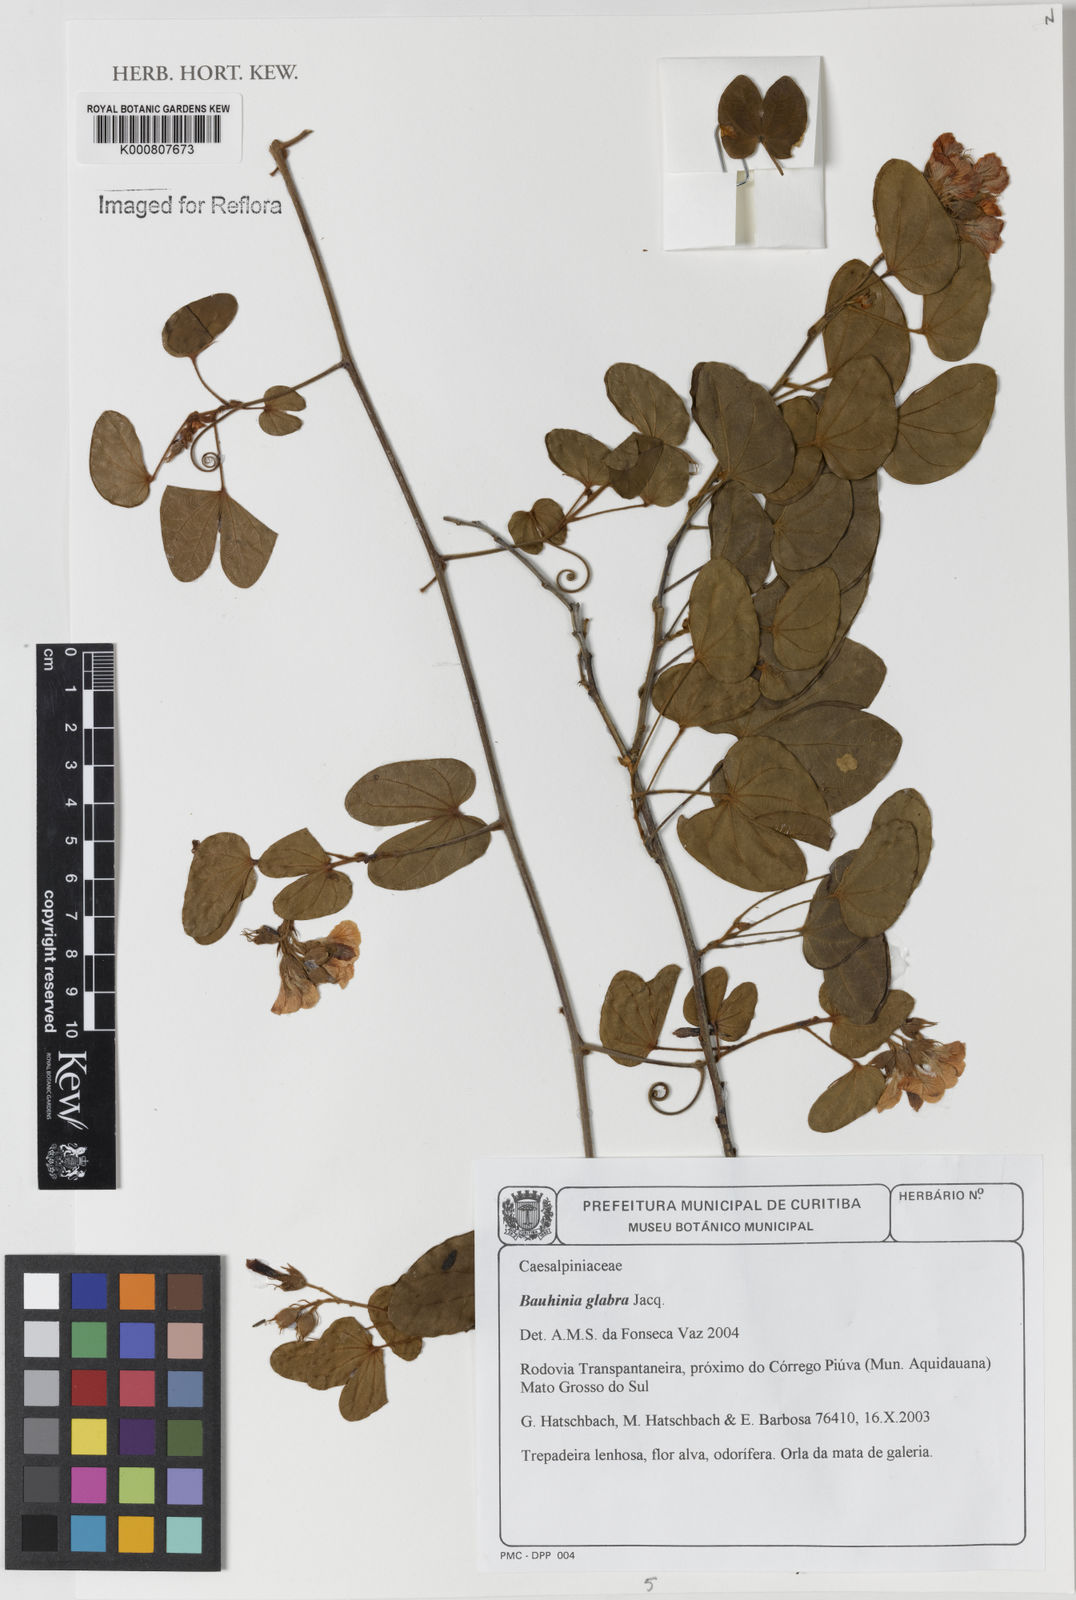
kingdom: Plantae
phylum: Tracheophyta
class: Magnoliopsida
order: Fabales
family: Fabaceae
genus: Schnella
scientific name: Schnella glabra
